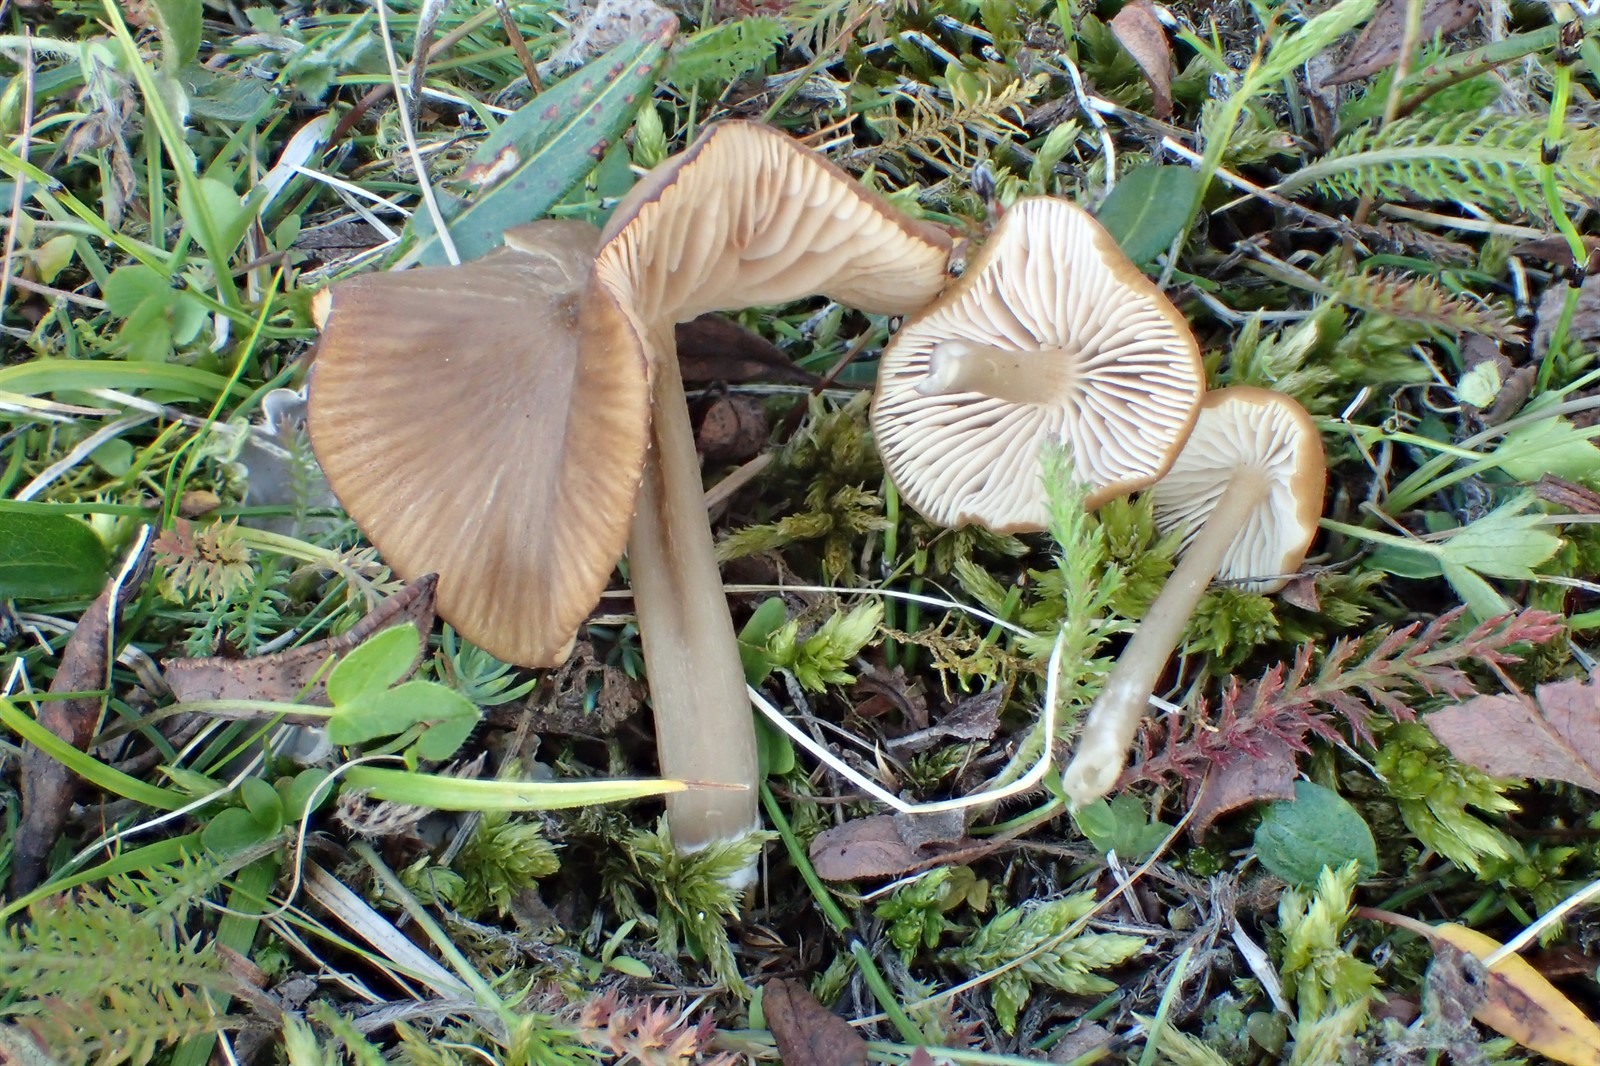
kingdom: Fungi
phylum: Basidiomycota
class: Agaricomycetes
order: Agaricales
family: Entolomataceae
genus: Entoloma
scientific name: Entoloma majusculum
